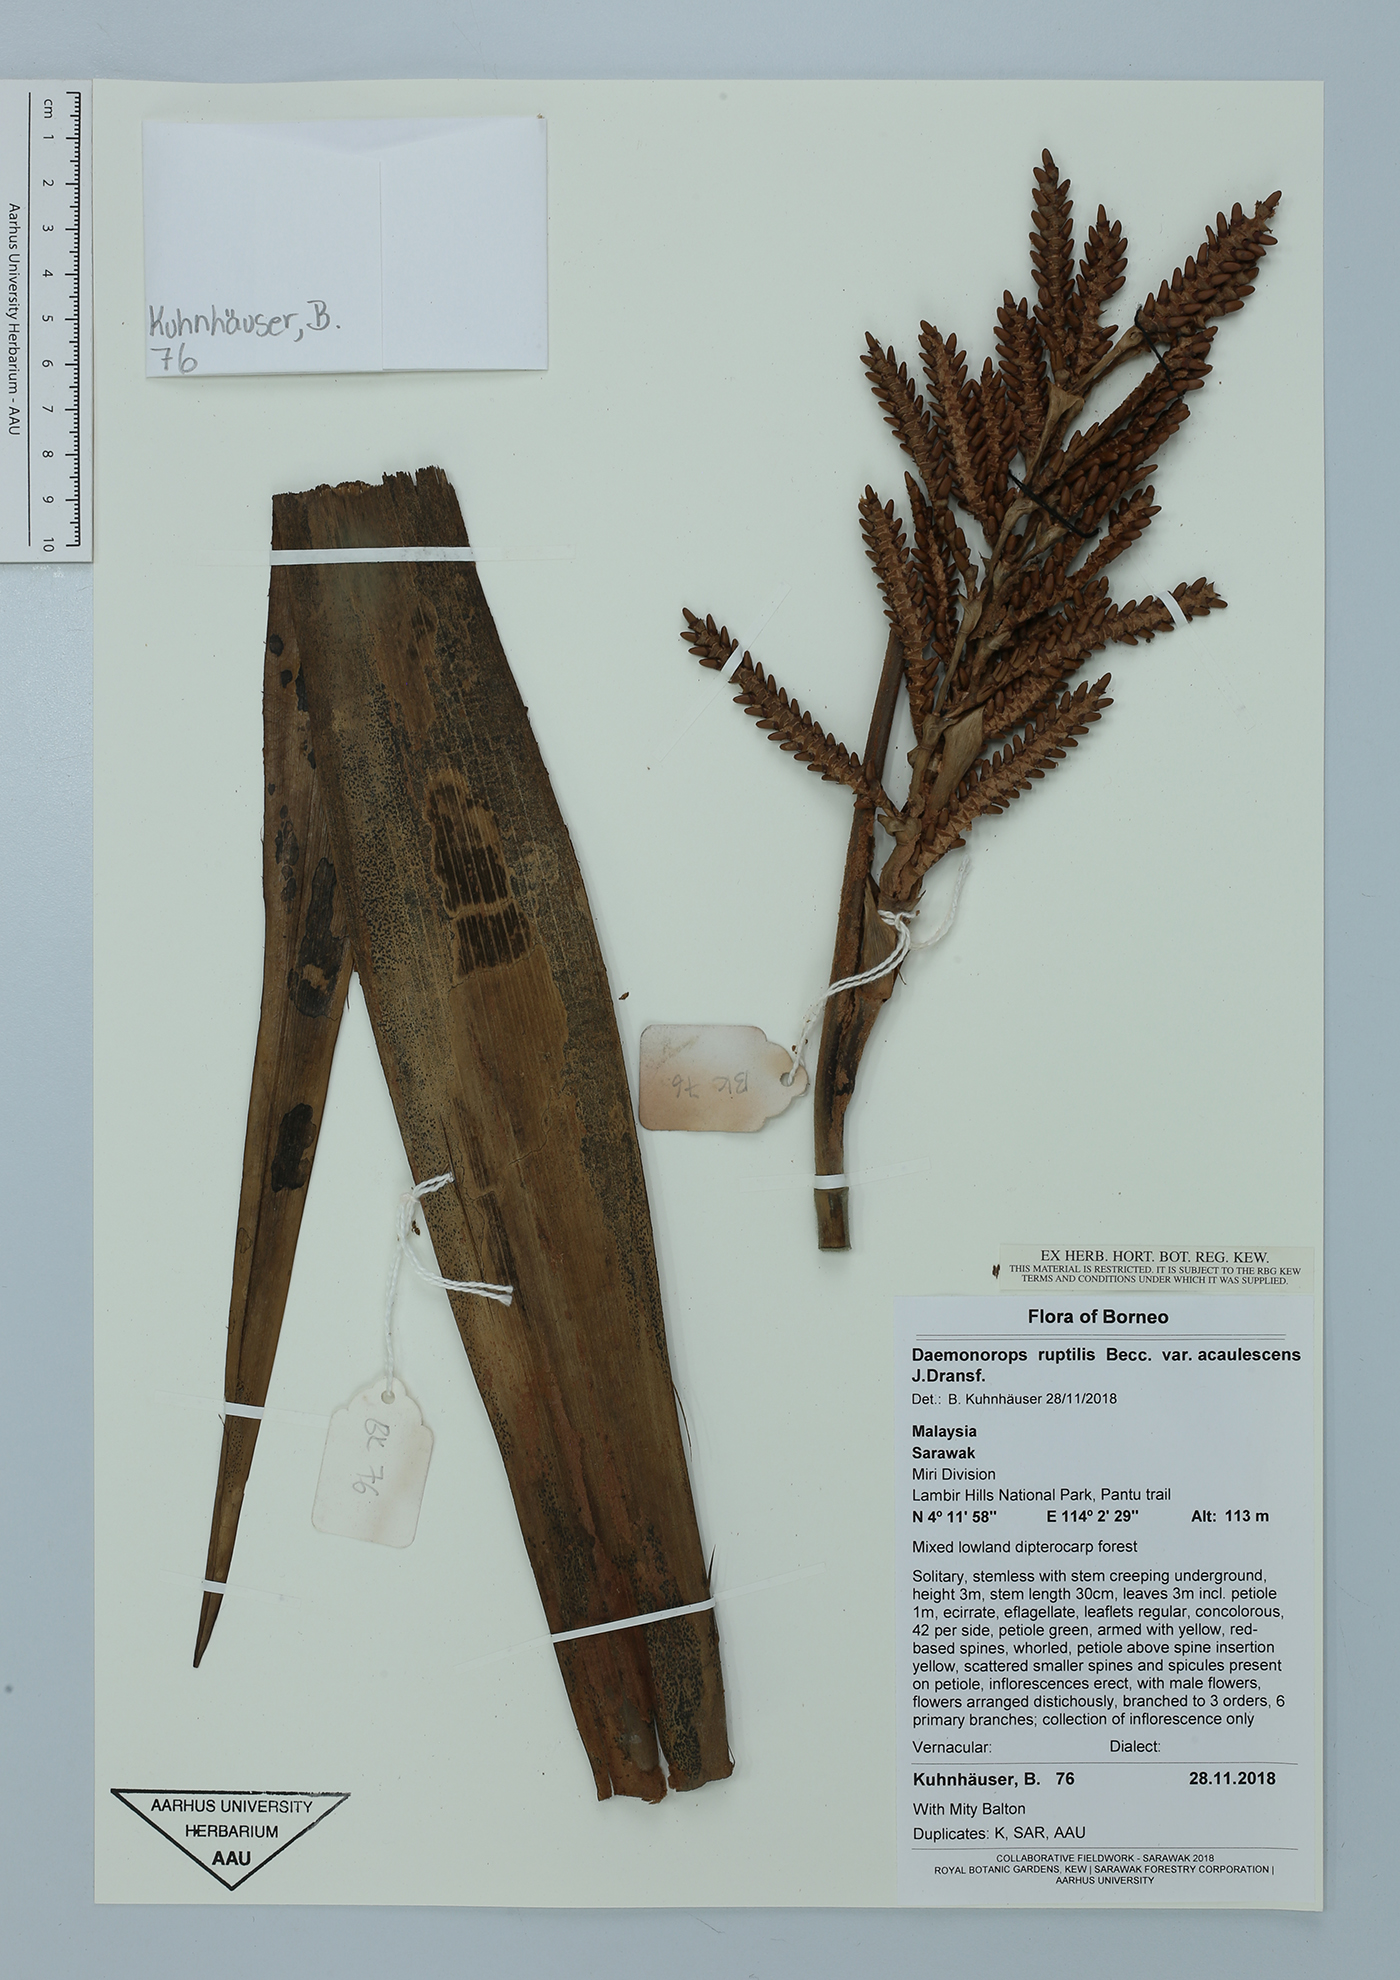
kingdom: Plantae
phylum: Tracheophyta
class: Liliopsida
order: Arecales
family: Arecaceae
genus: Calamus
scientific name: Calamus ruptiloides
